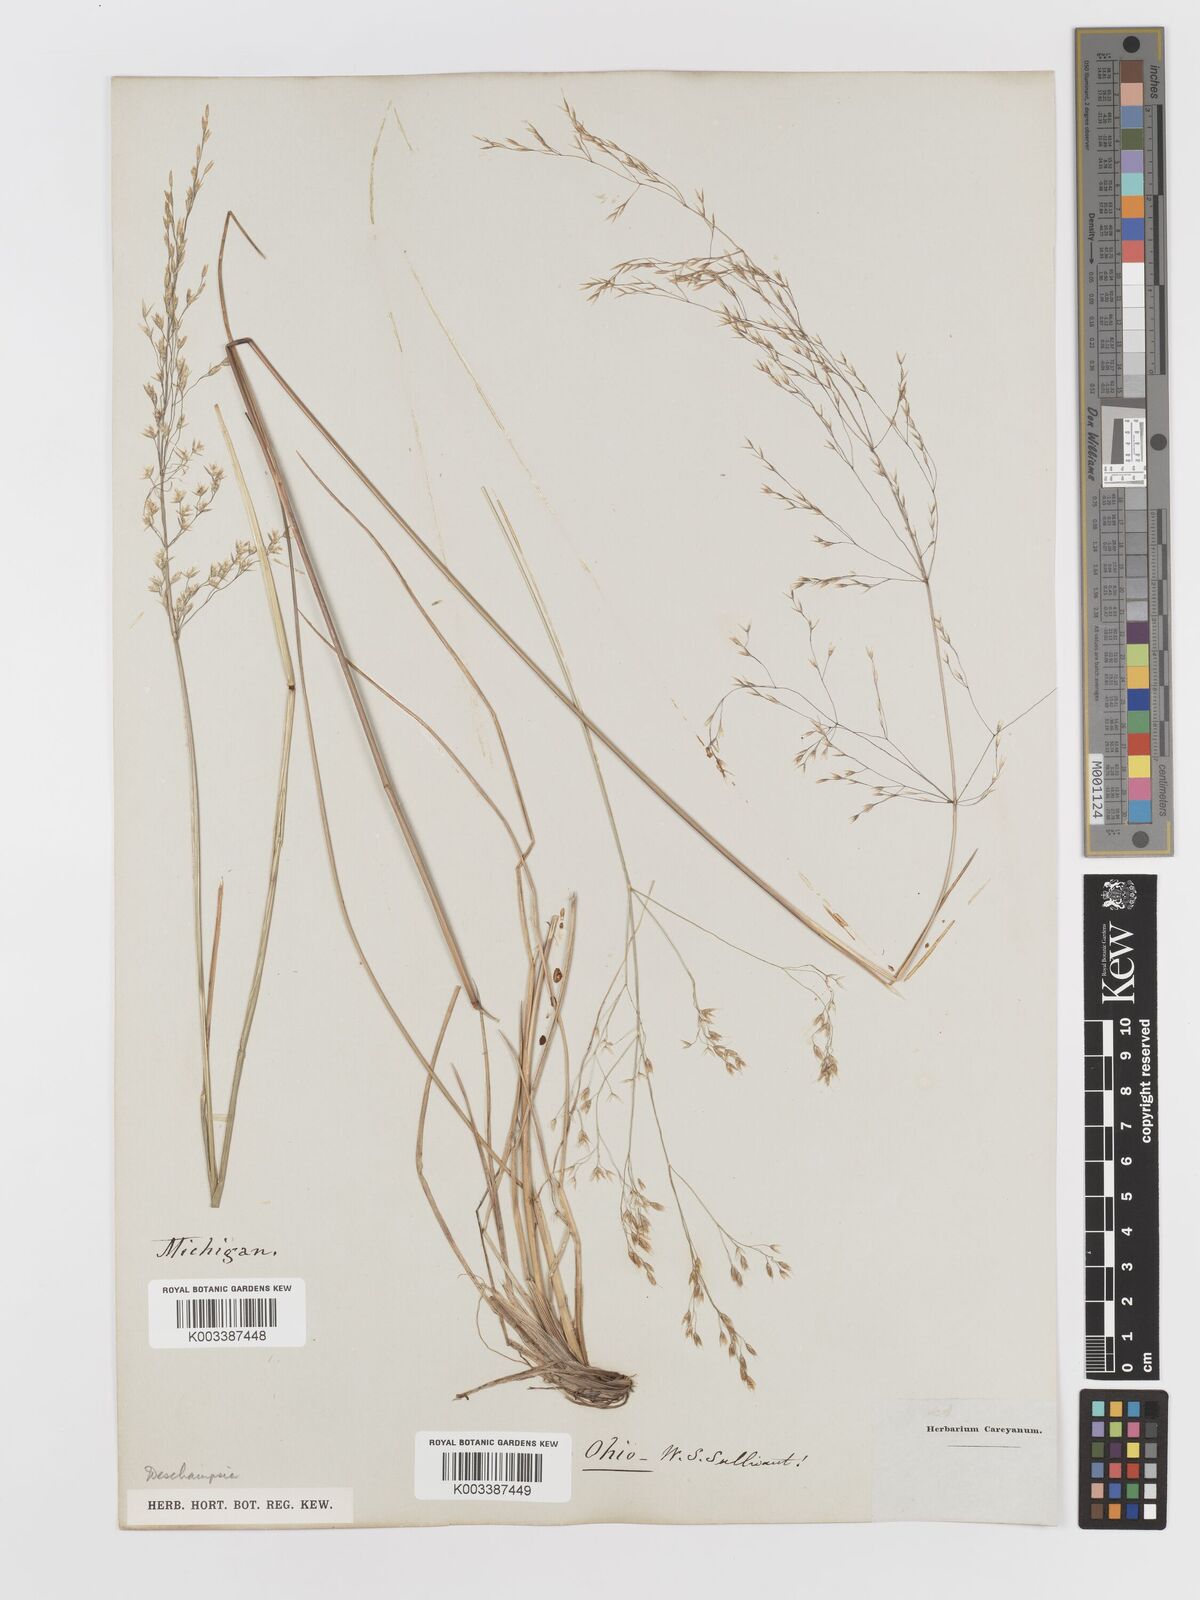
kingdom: Plantae
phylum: Tracheophyta
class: Liliopsida
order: Poales
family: Poaceae
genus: Deschampsia
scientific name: Deschampsia
